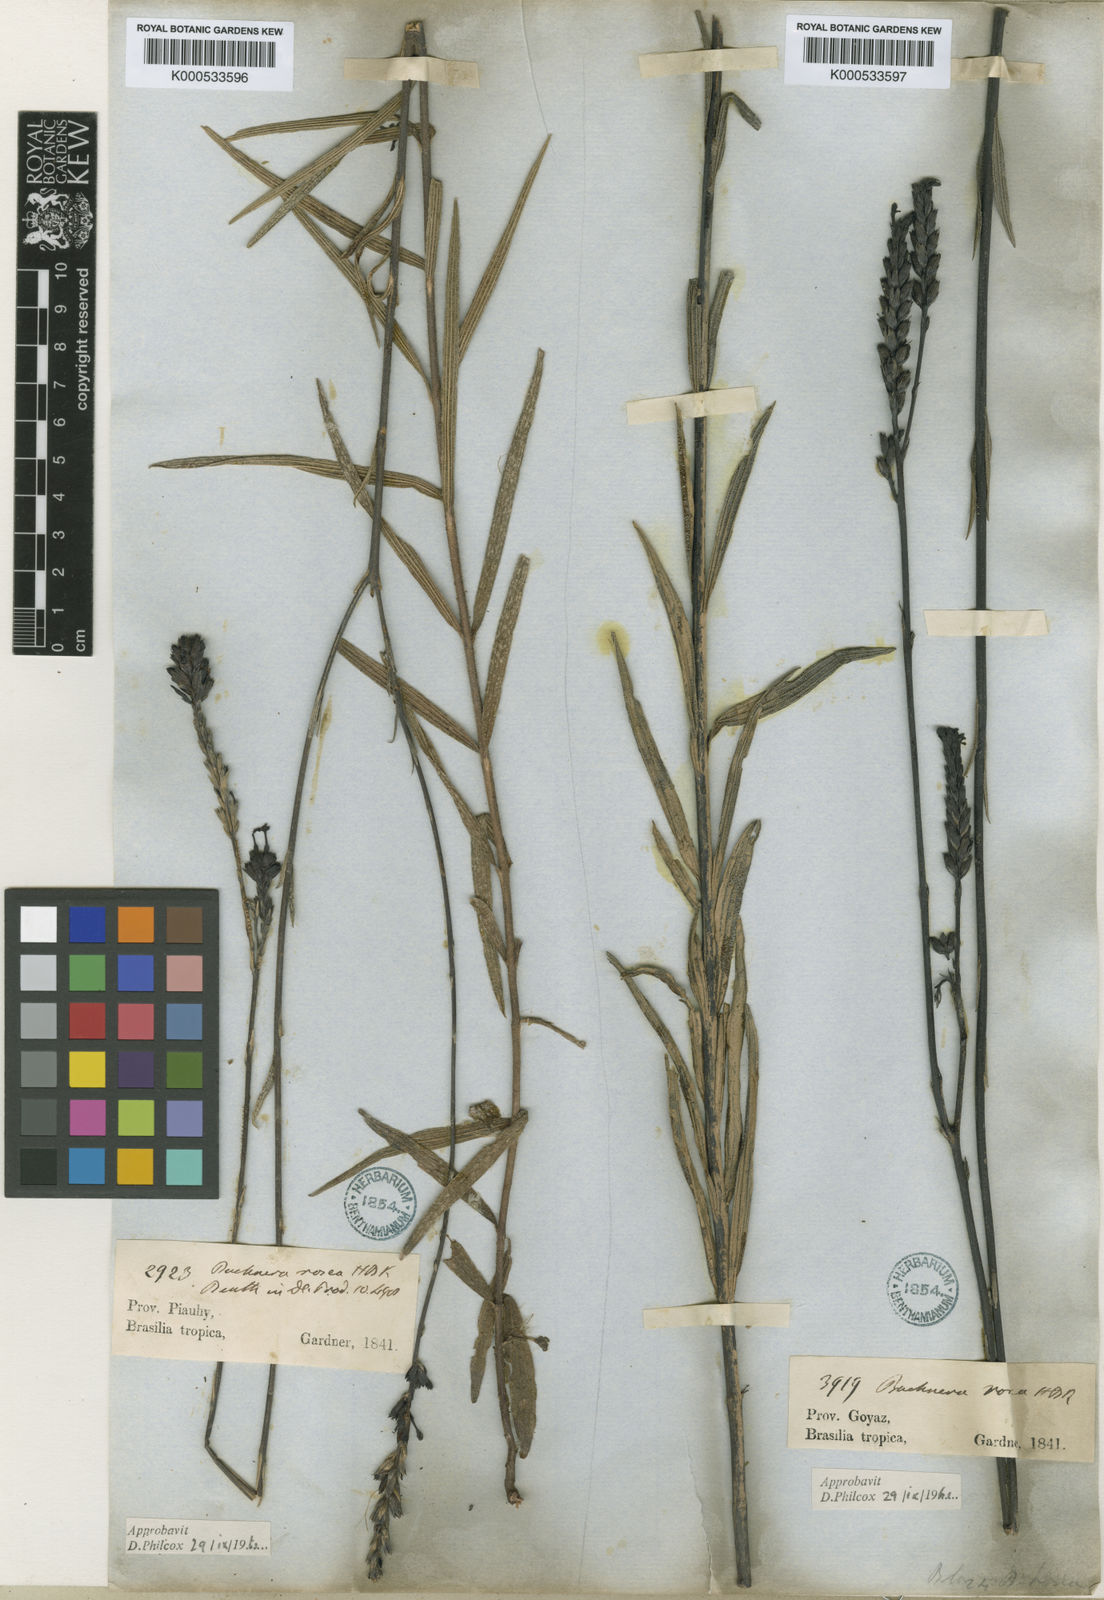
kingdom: Plantae
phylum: Tracheophyta
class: Magnoliopsida
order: Lamiales
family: Orobanchaceae
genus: Buchnera
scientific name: Buchnera rosea
